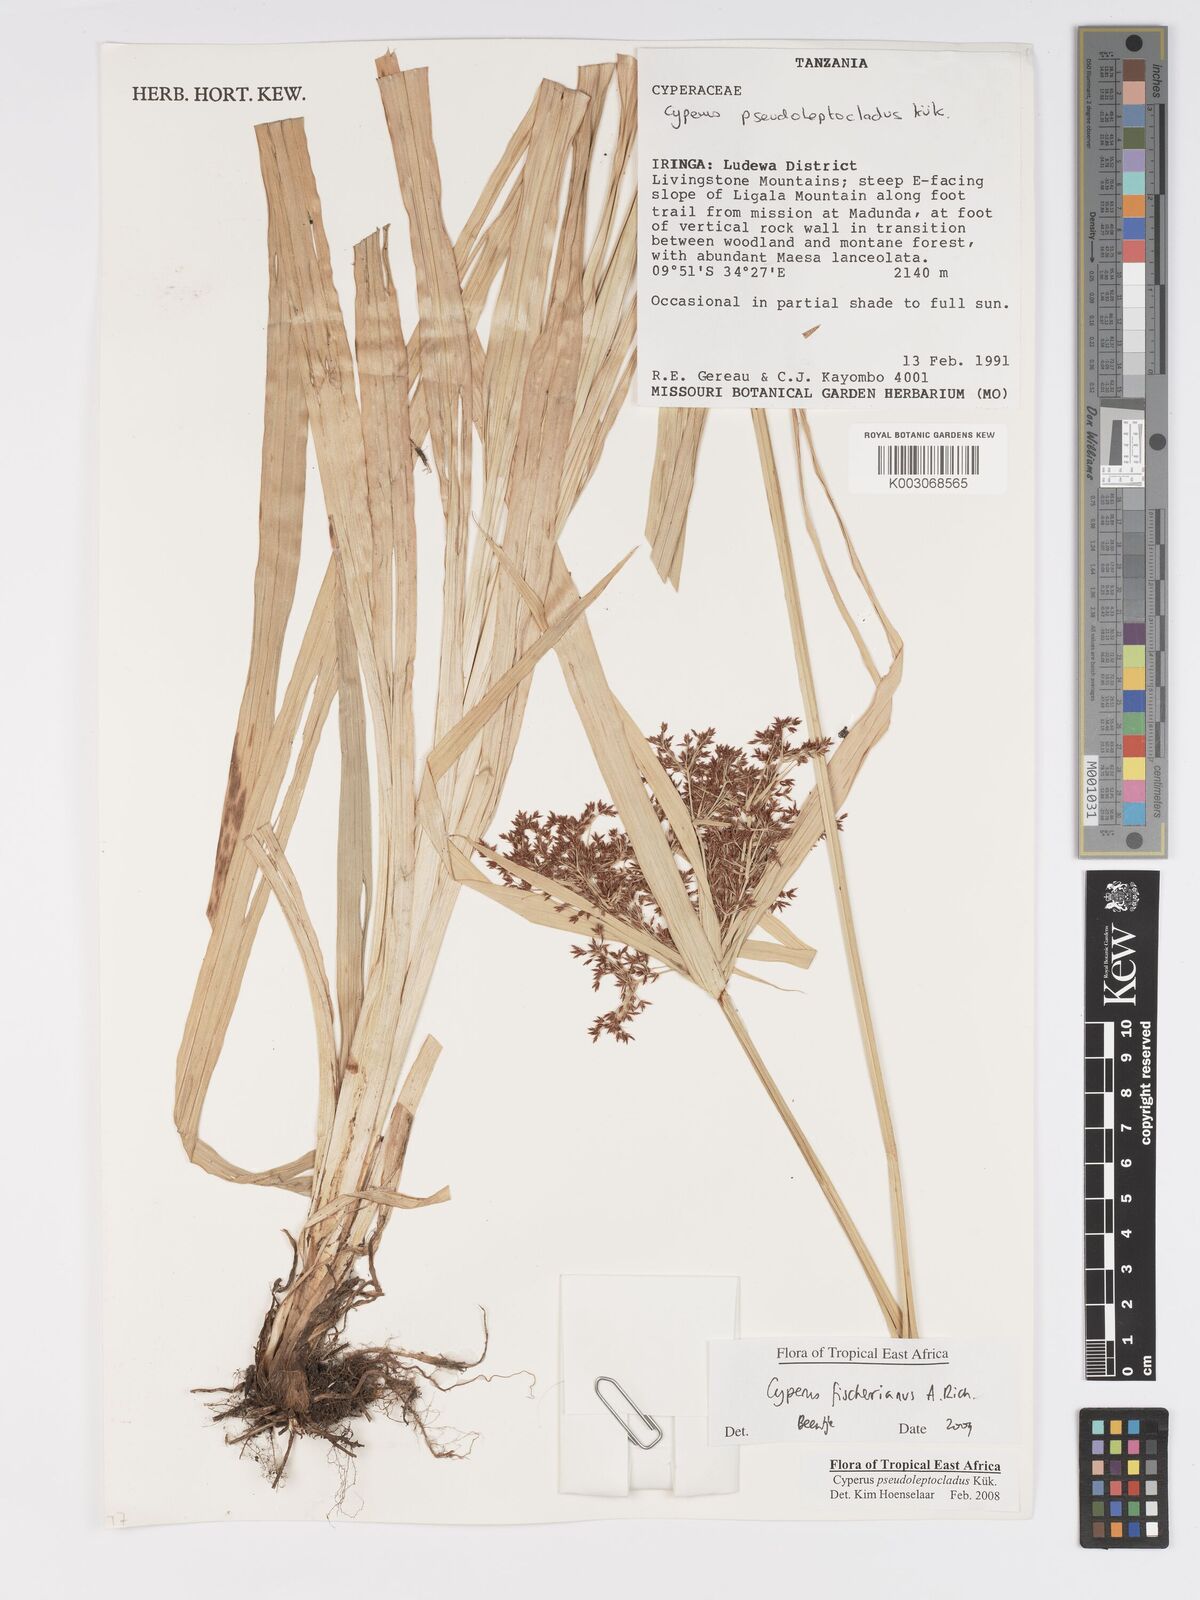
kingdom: Plantae
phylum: Tracheophyta
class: Liliopsida
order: Poales
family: Cyperaceae
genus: Cyperus
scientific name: Cyperus fischerianus
